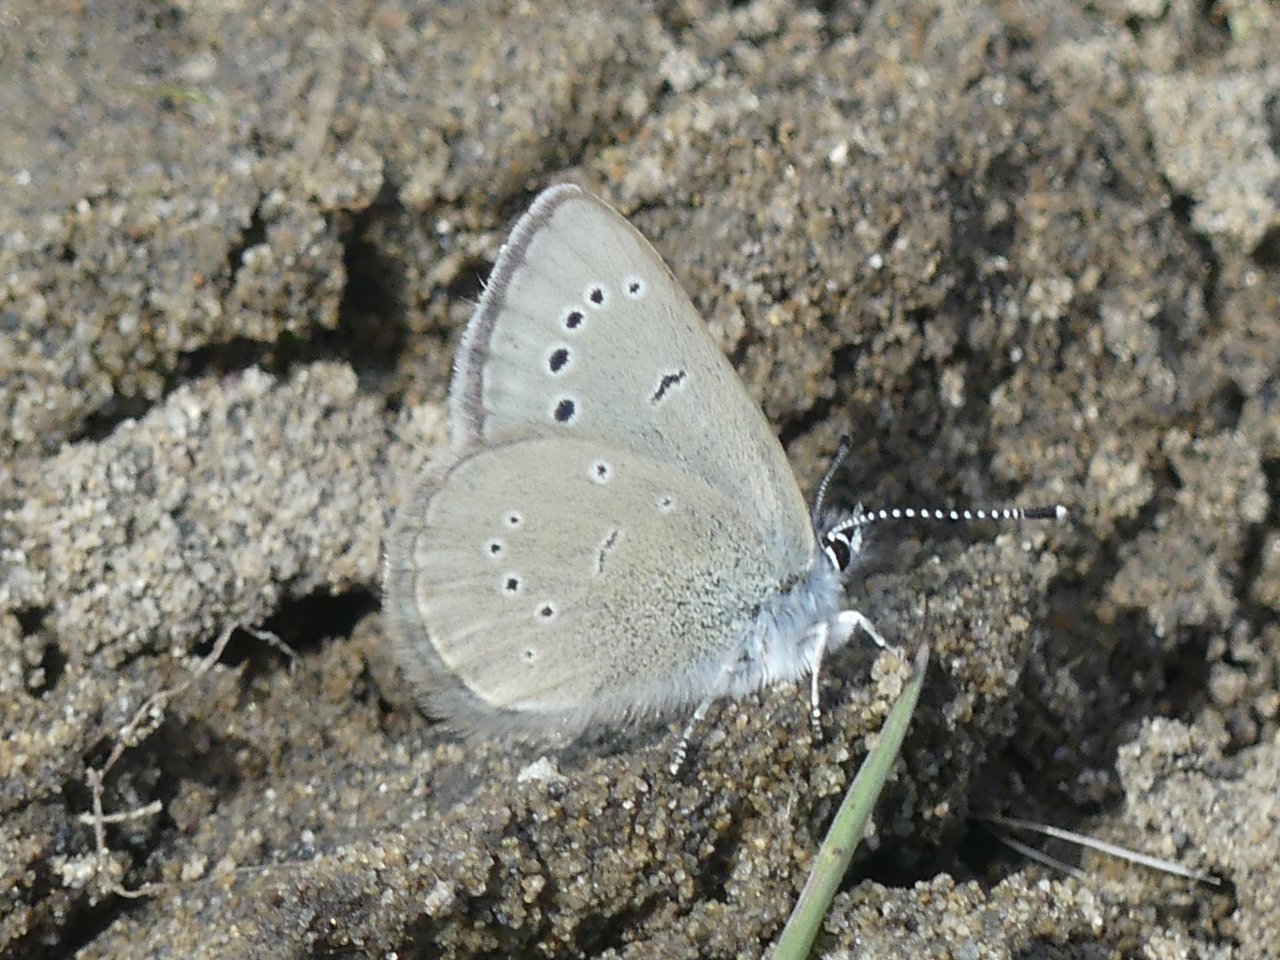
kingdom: Animalia
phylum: Arthropoda
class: Insecta
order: Lepidoptera
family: Lycaenidae
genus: Glaucopsyche
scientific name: Glaucopsyche lygdamus
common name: Silvery Blue
